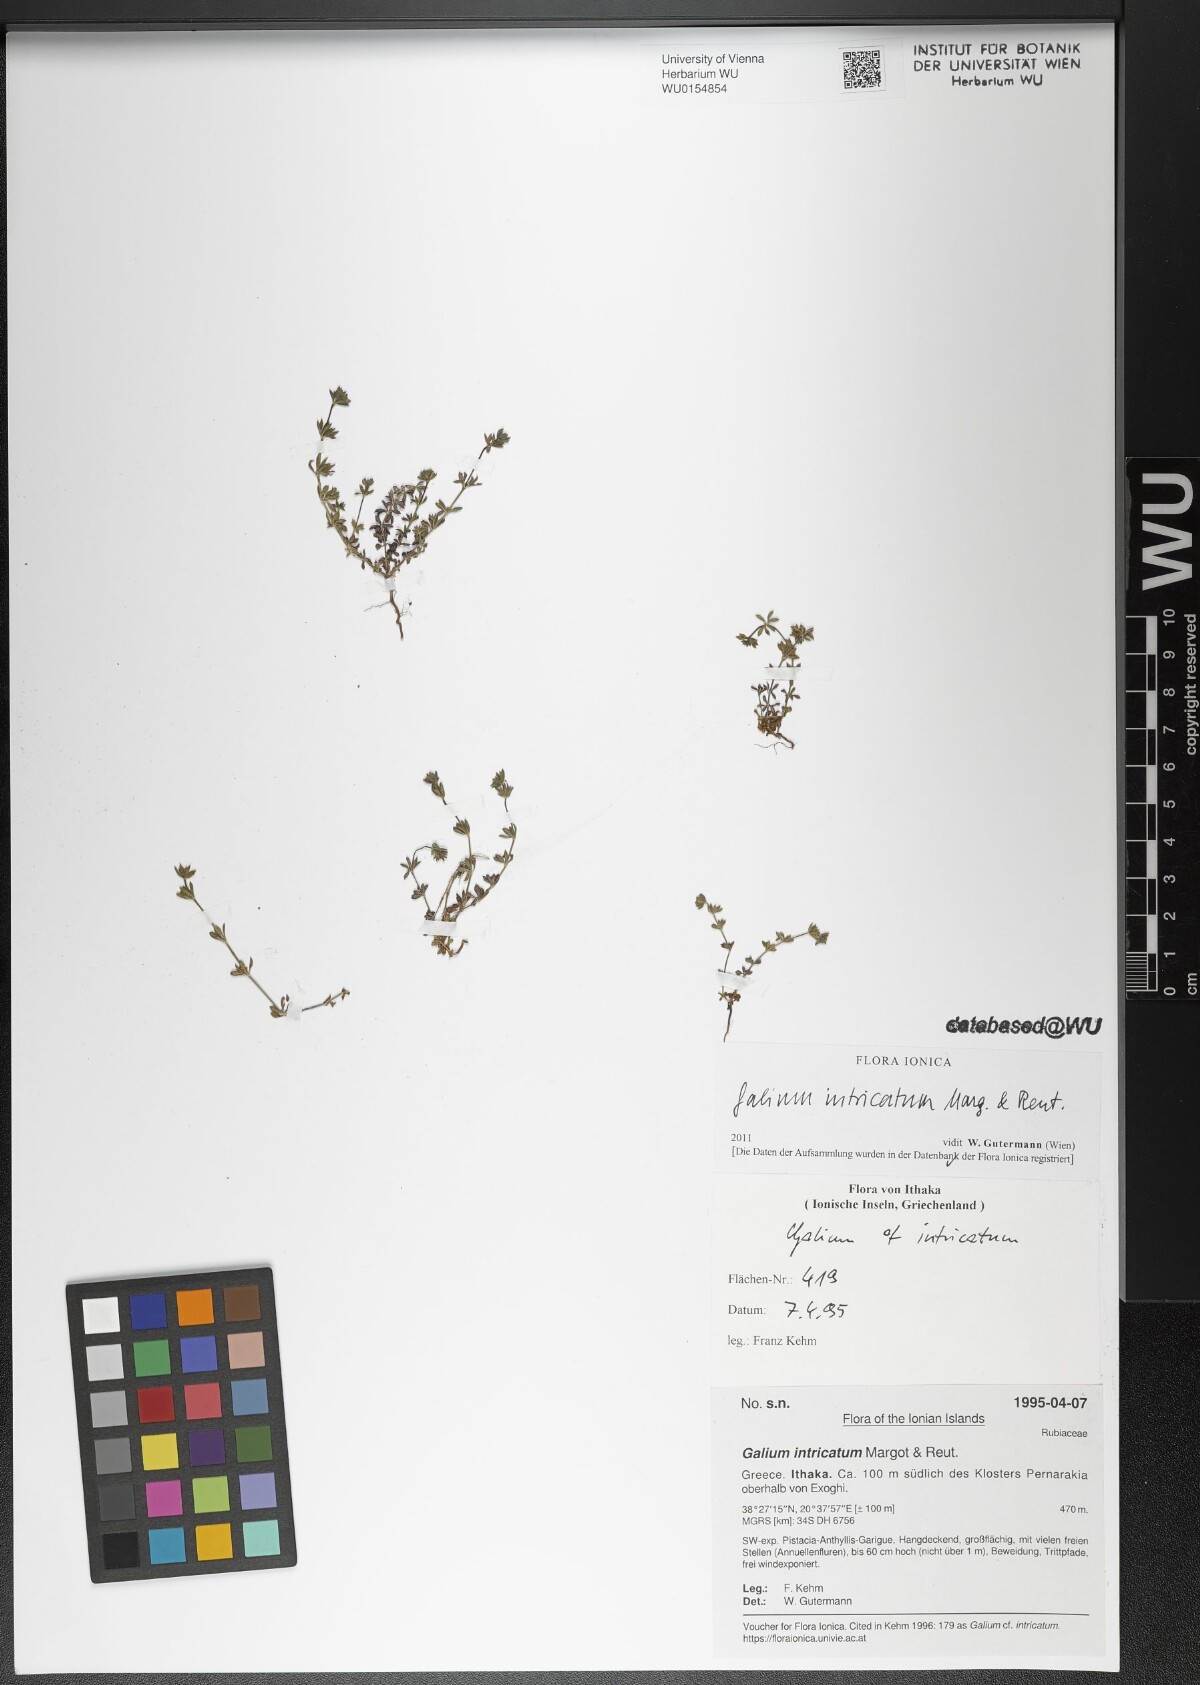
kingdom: Plantae
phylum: Tracheophyta
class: Magnoliopsida
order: Gentianales
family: Rubiaceae
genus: Galium
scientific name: Galium intricatum
